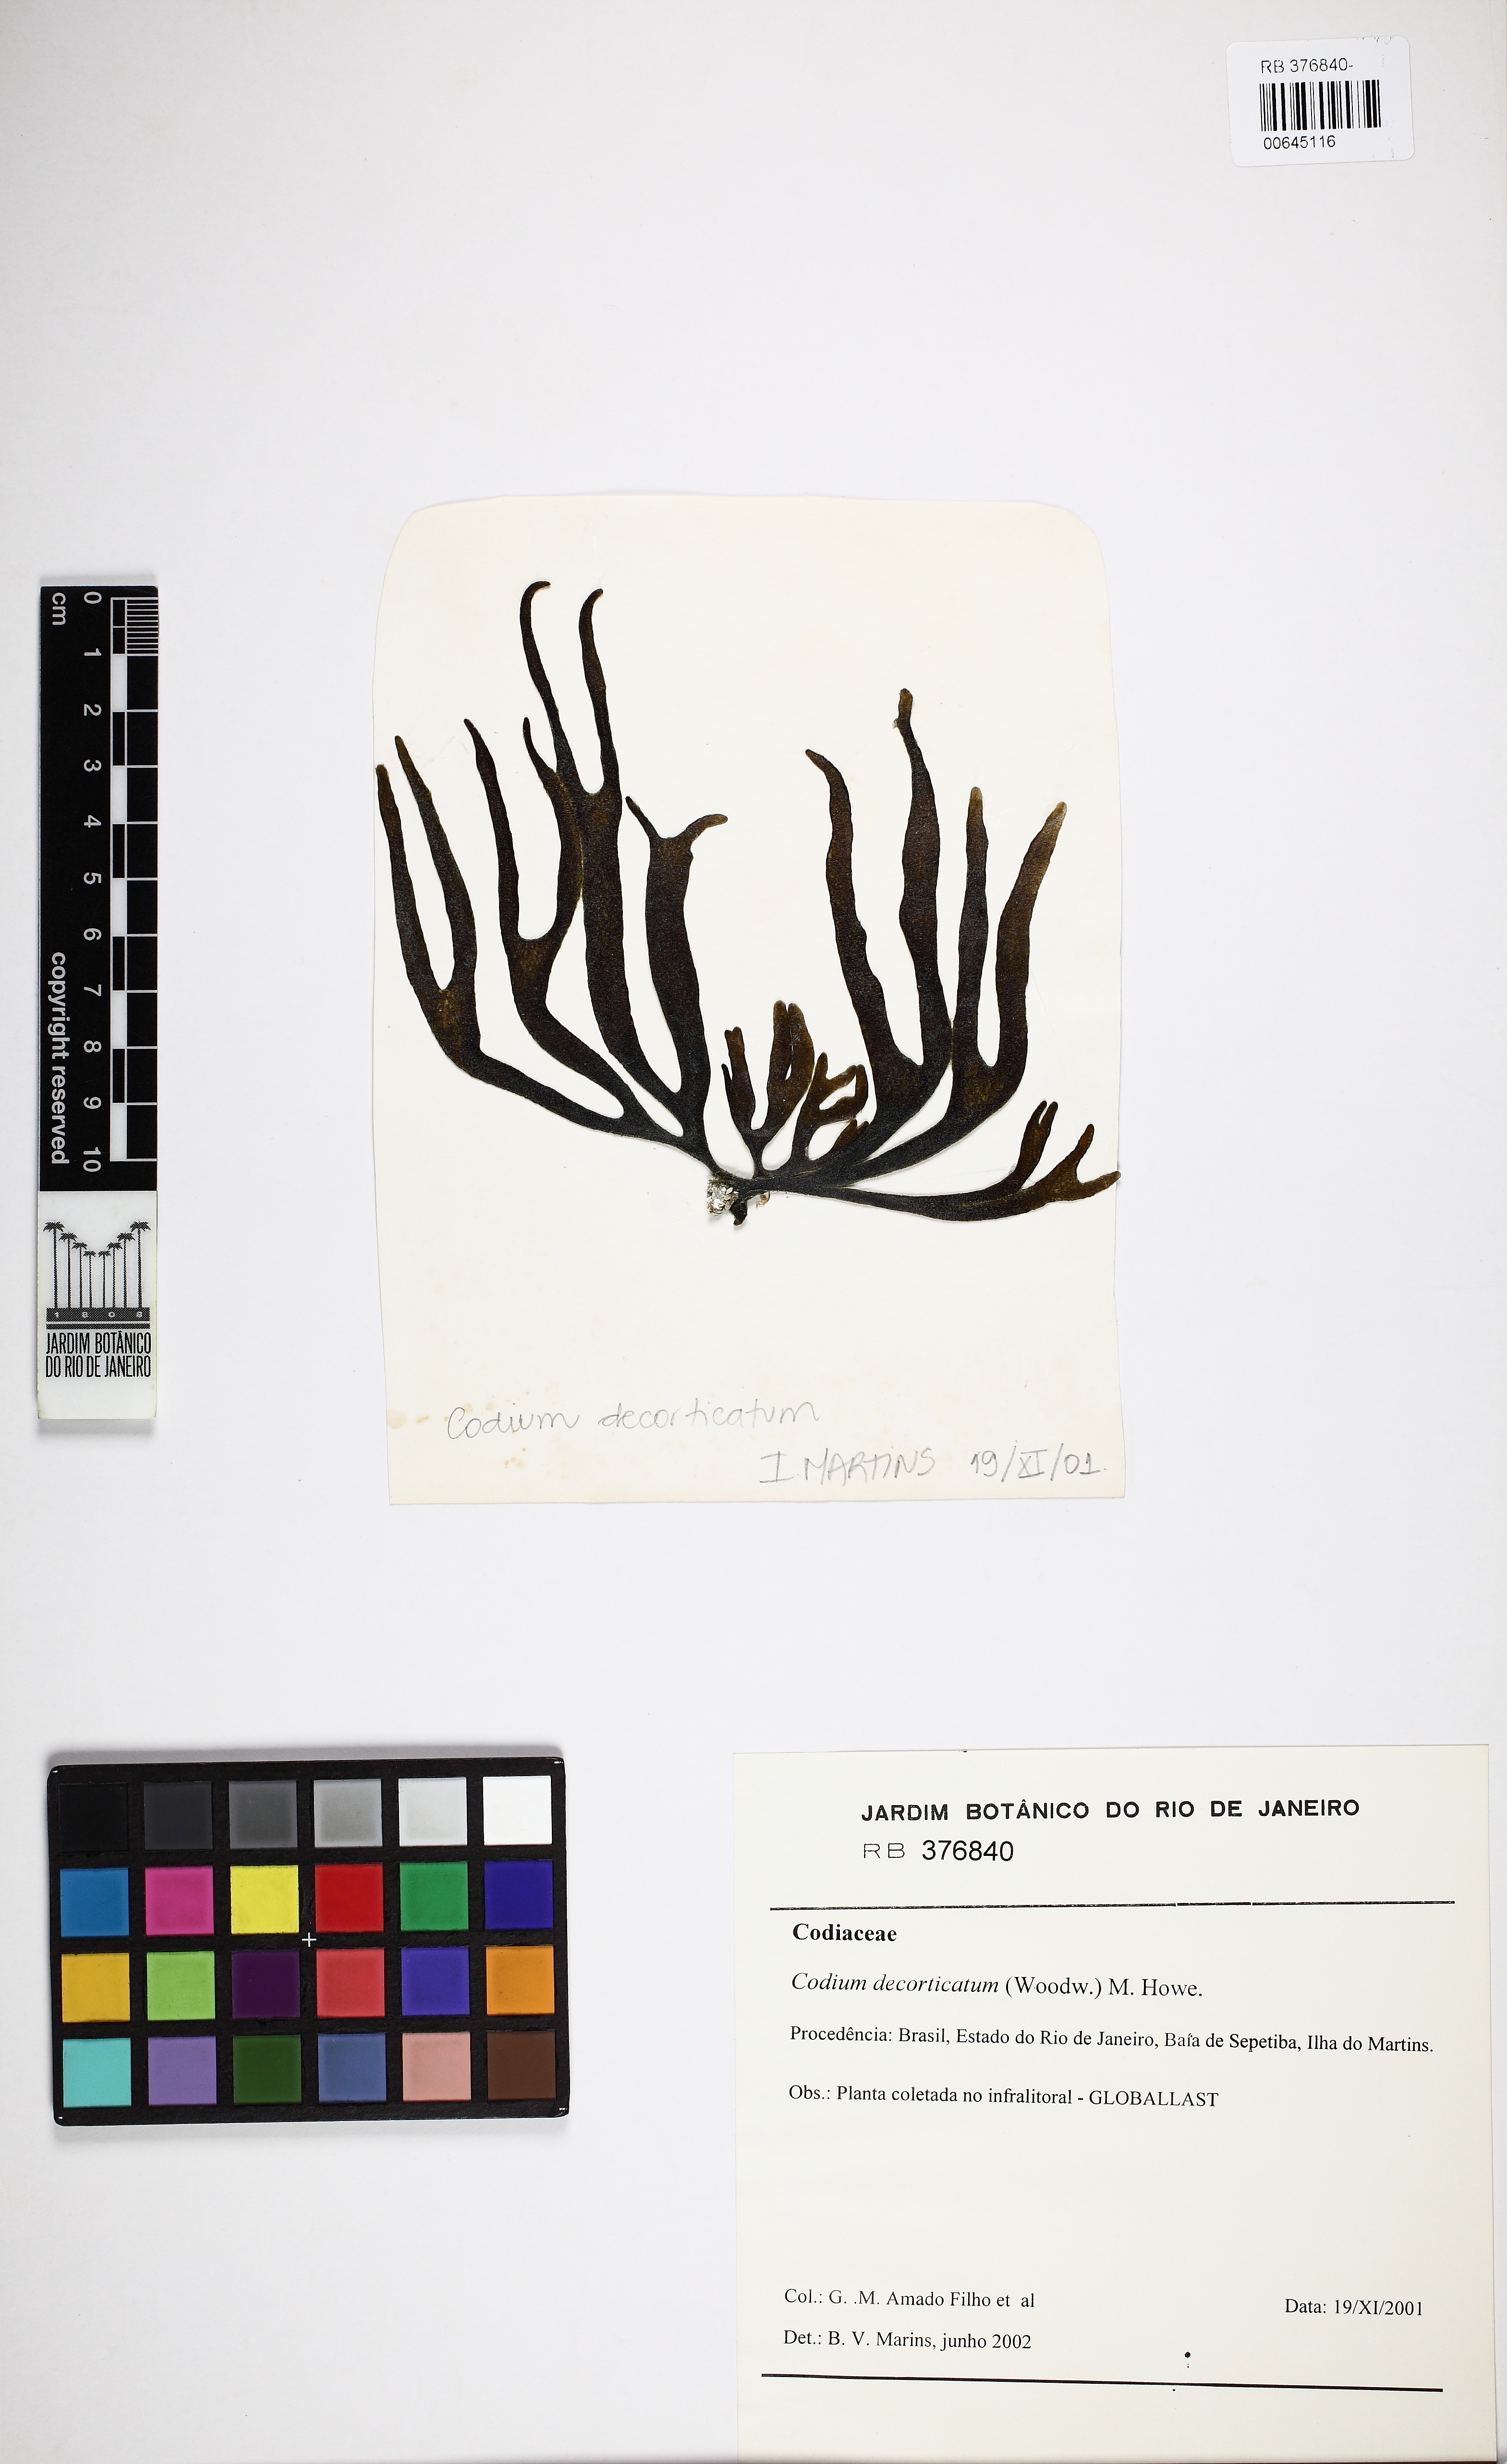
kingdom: Plantae
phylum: Chlorophyta
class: Ulvophyceae
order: Bryopsidales
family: Codiaceae
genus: Codium
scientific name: Codium decorticatum
